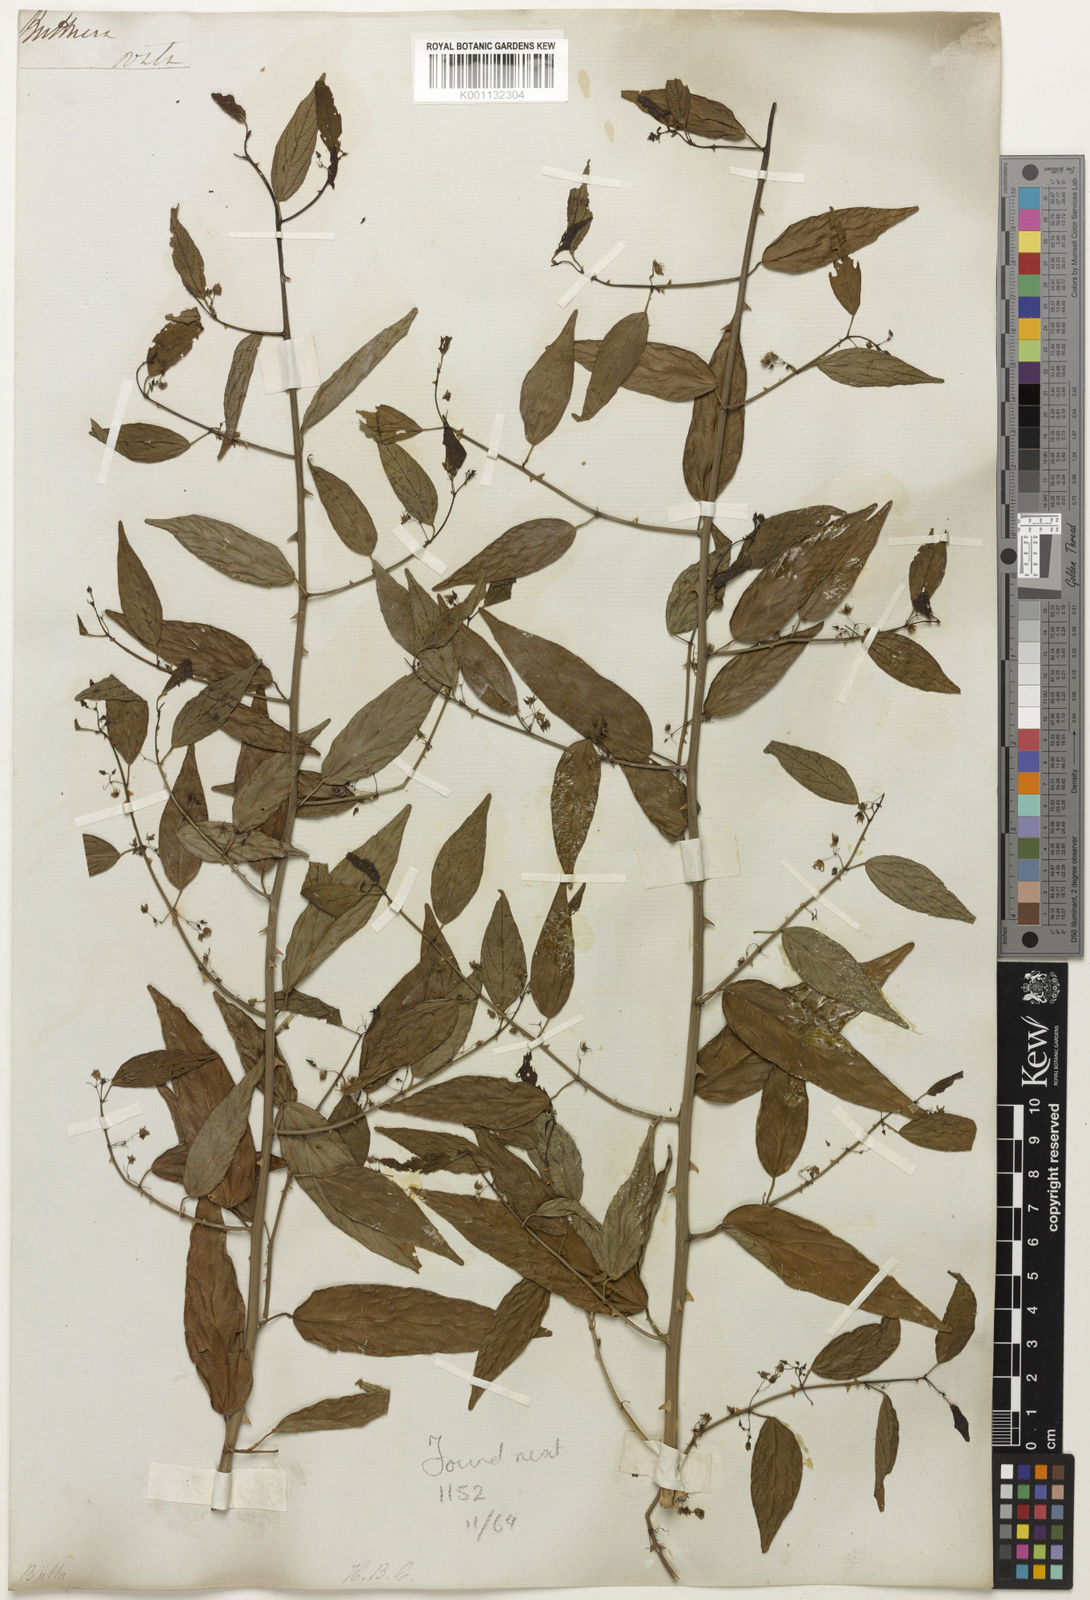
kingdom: Plantae
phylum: Tracheophyta
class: Magnoliopsida
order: Malvales
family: Malvaceae
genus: Byttneria
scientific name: Byttneria
